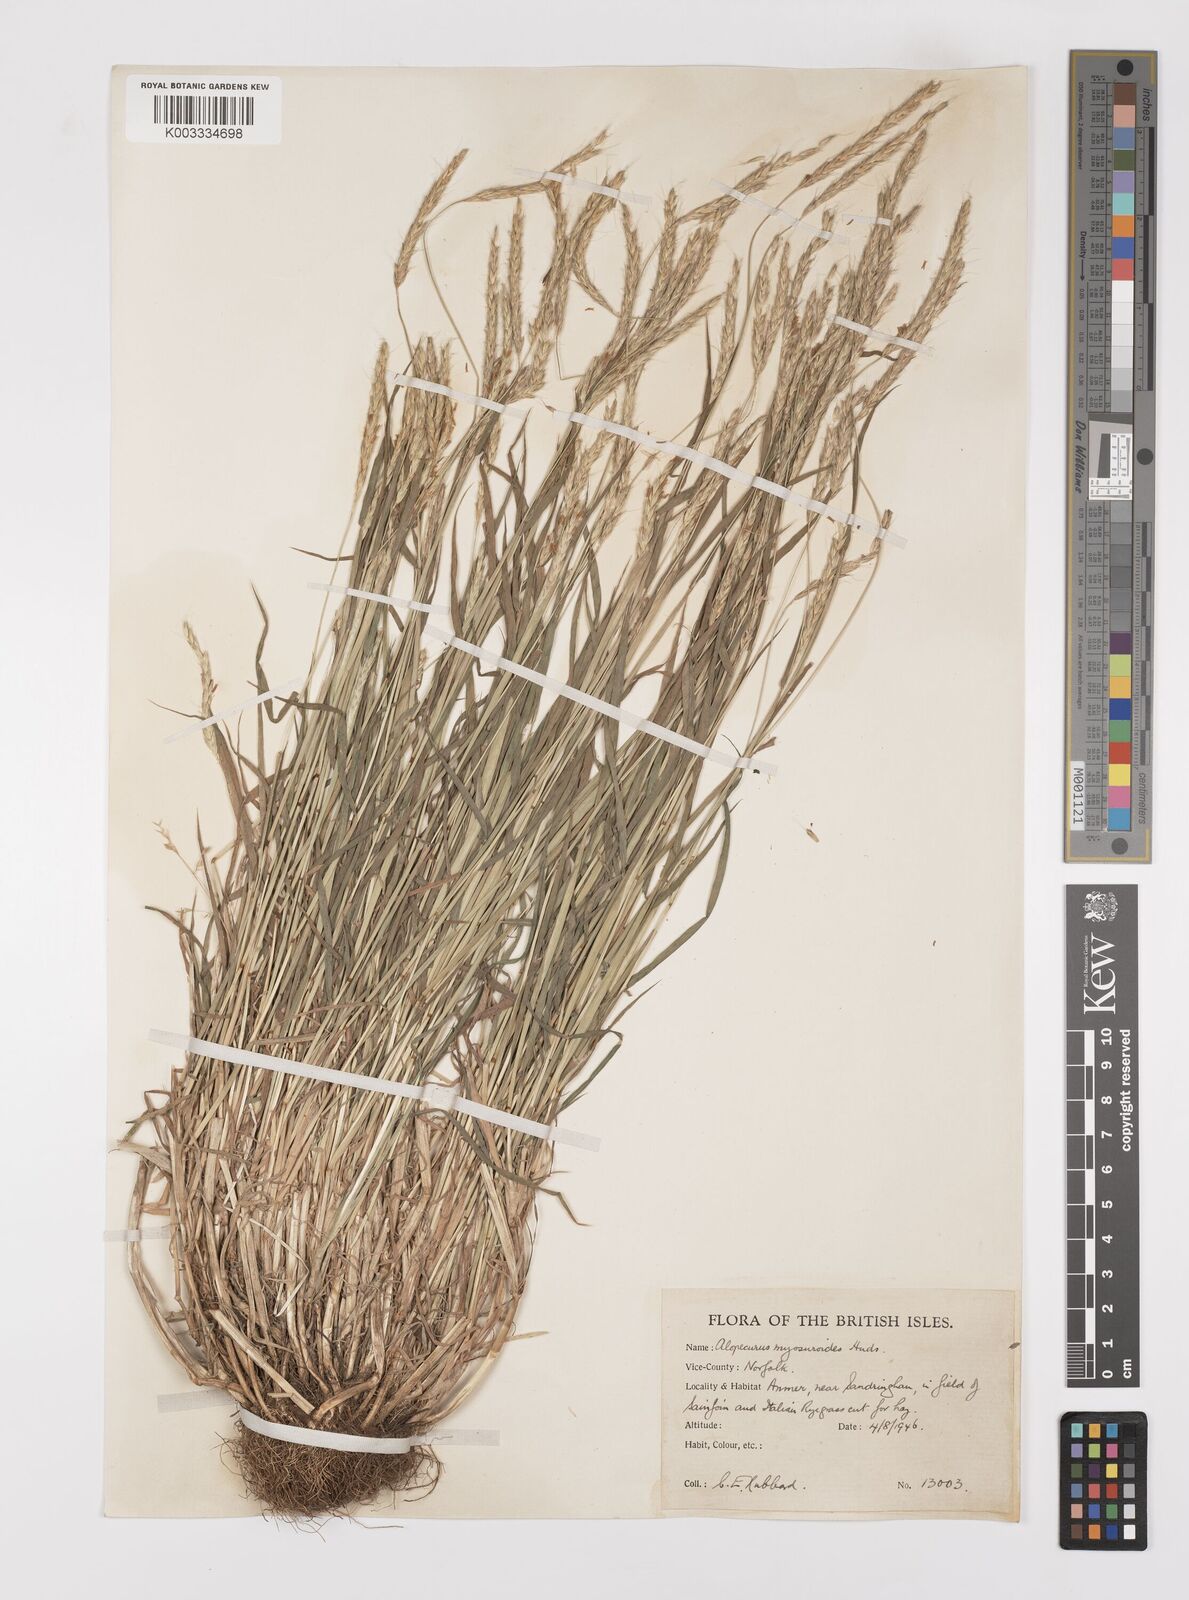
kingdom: Plantae
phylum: Tracheophyta
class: Liliopsida
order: Poales
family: Poaceae
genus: Alopecurus
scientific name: Alopecurus myosuroides
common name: Black-grass
